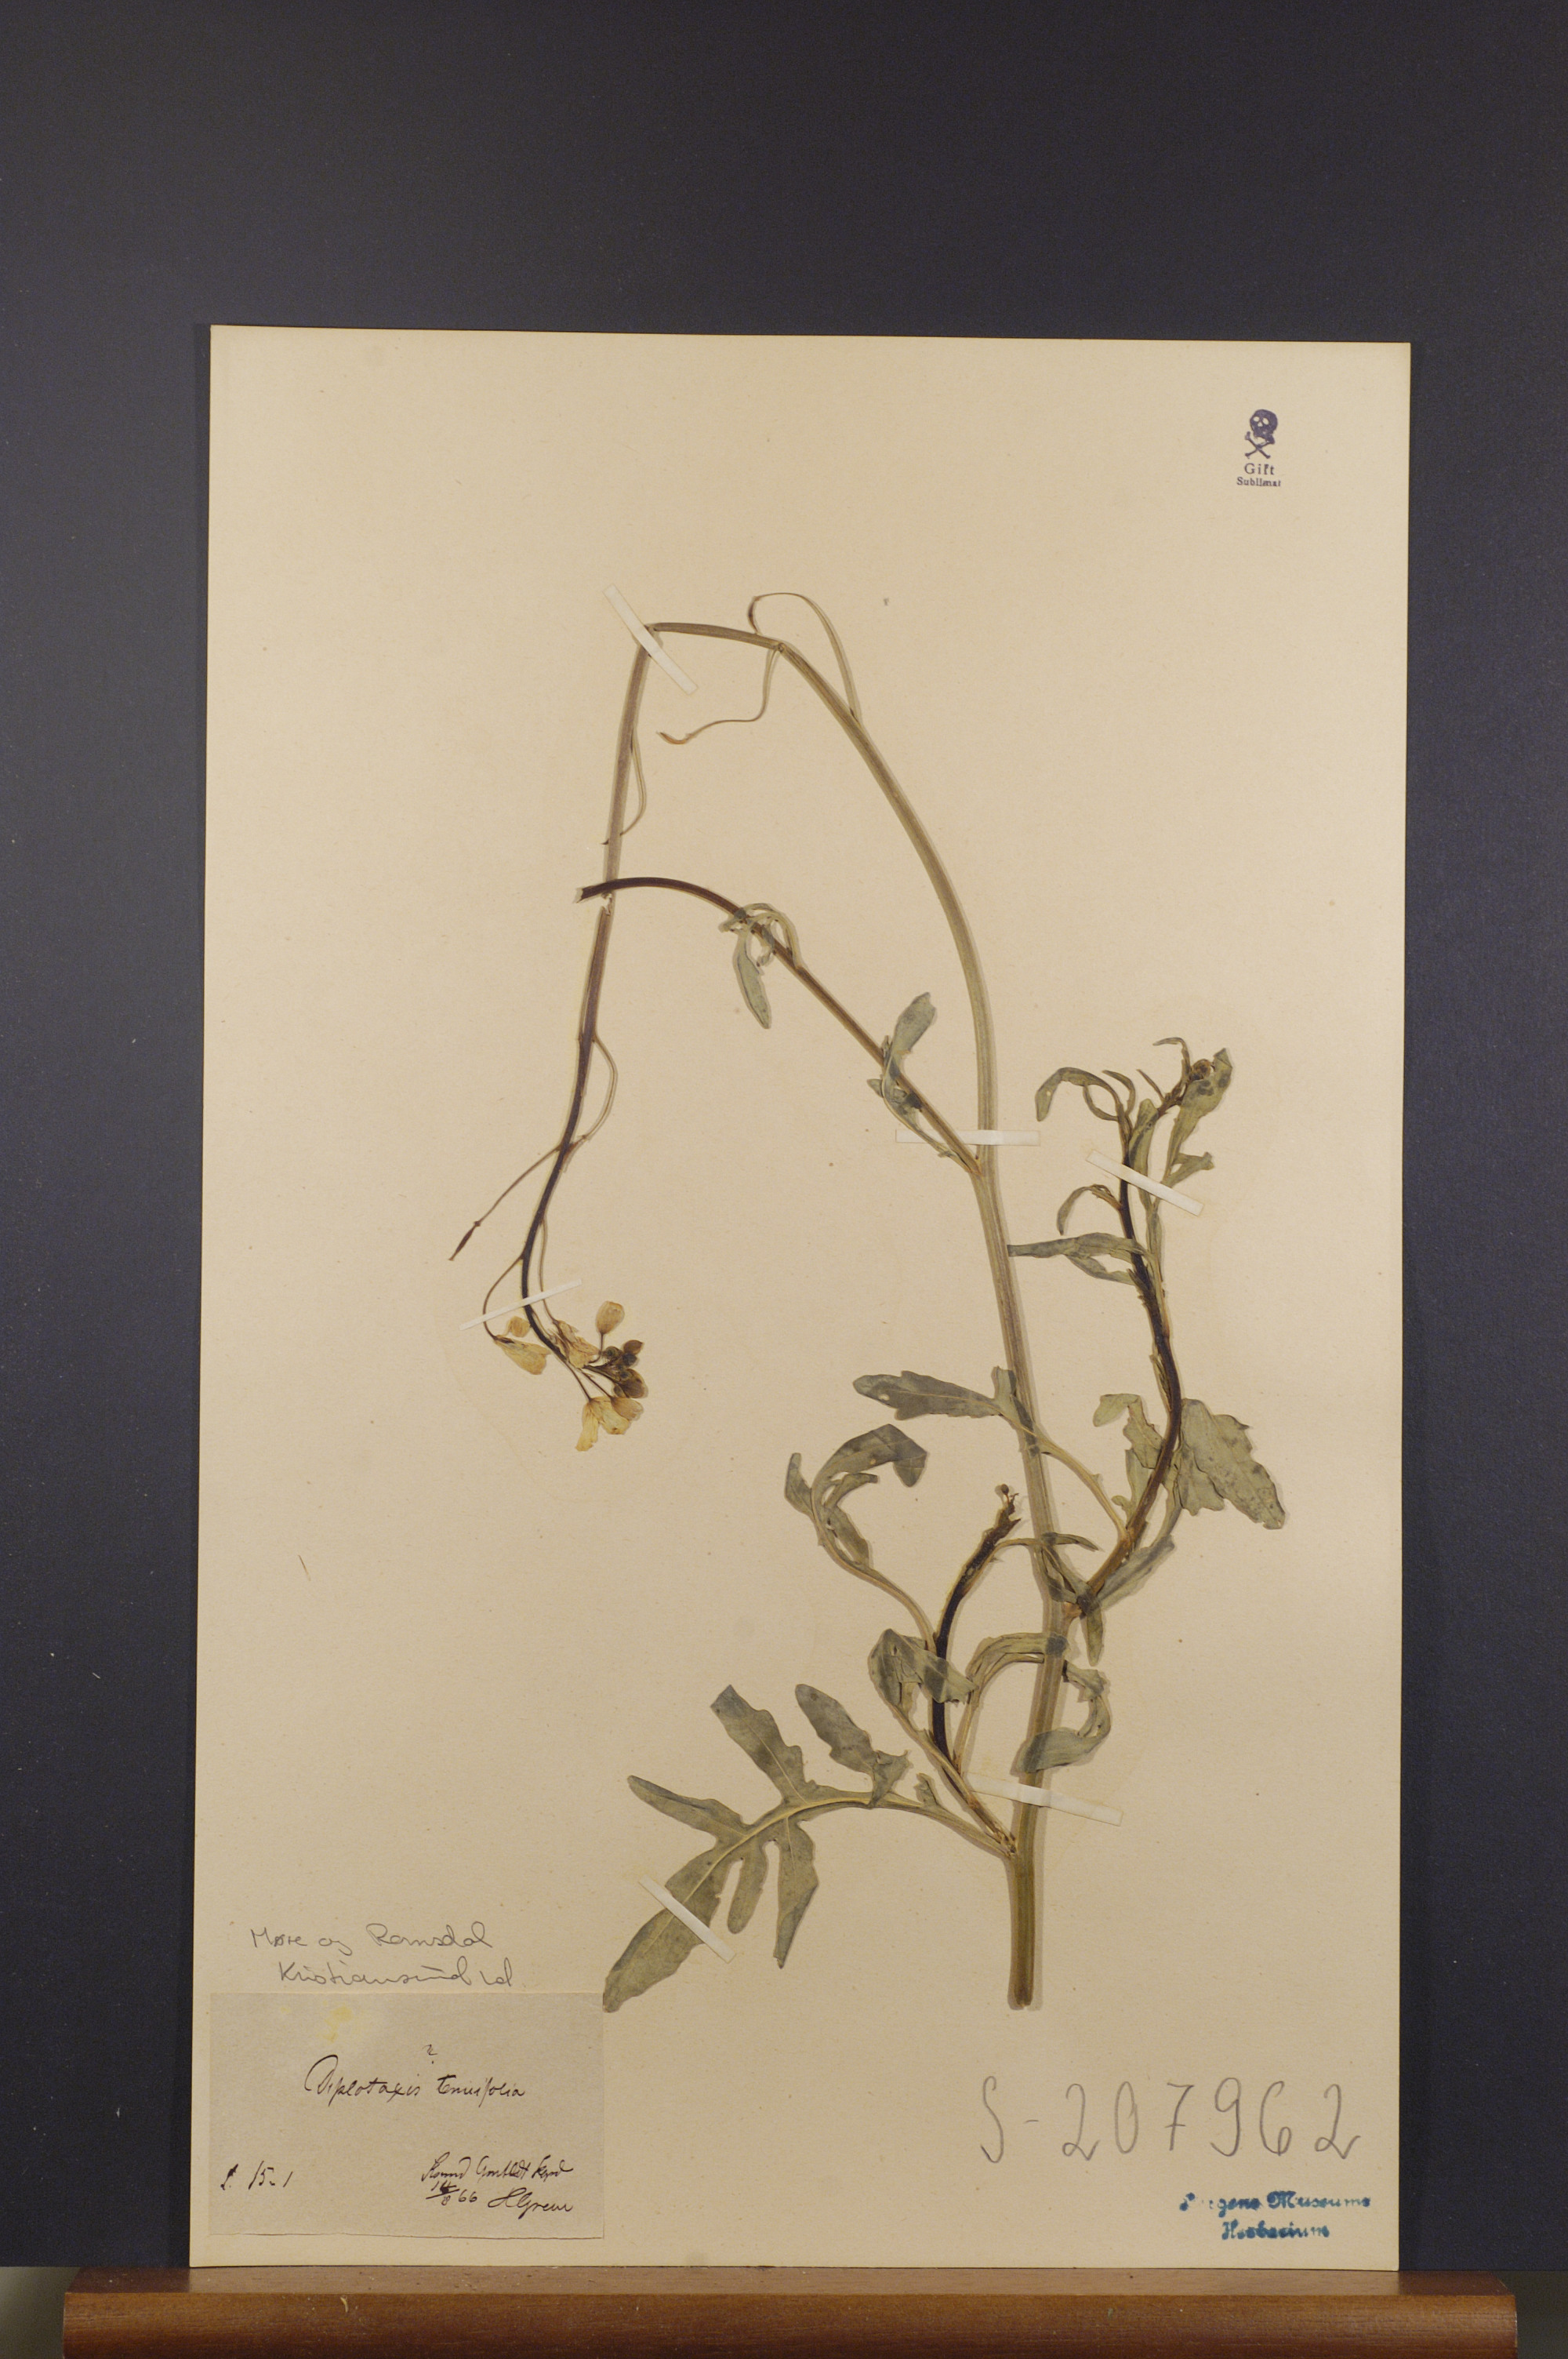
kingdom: Plantae
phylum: Tracheophyta
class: Magnoliopsida
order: Brassicales
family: Brassicaceae
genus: Diplotaxis
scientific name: Diplotaxis tenuifolia
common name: Perennial wall-rocket
